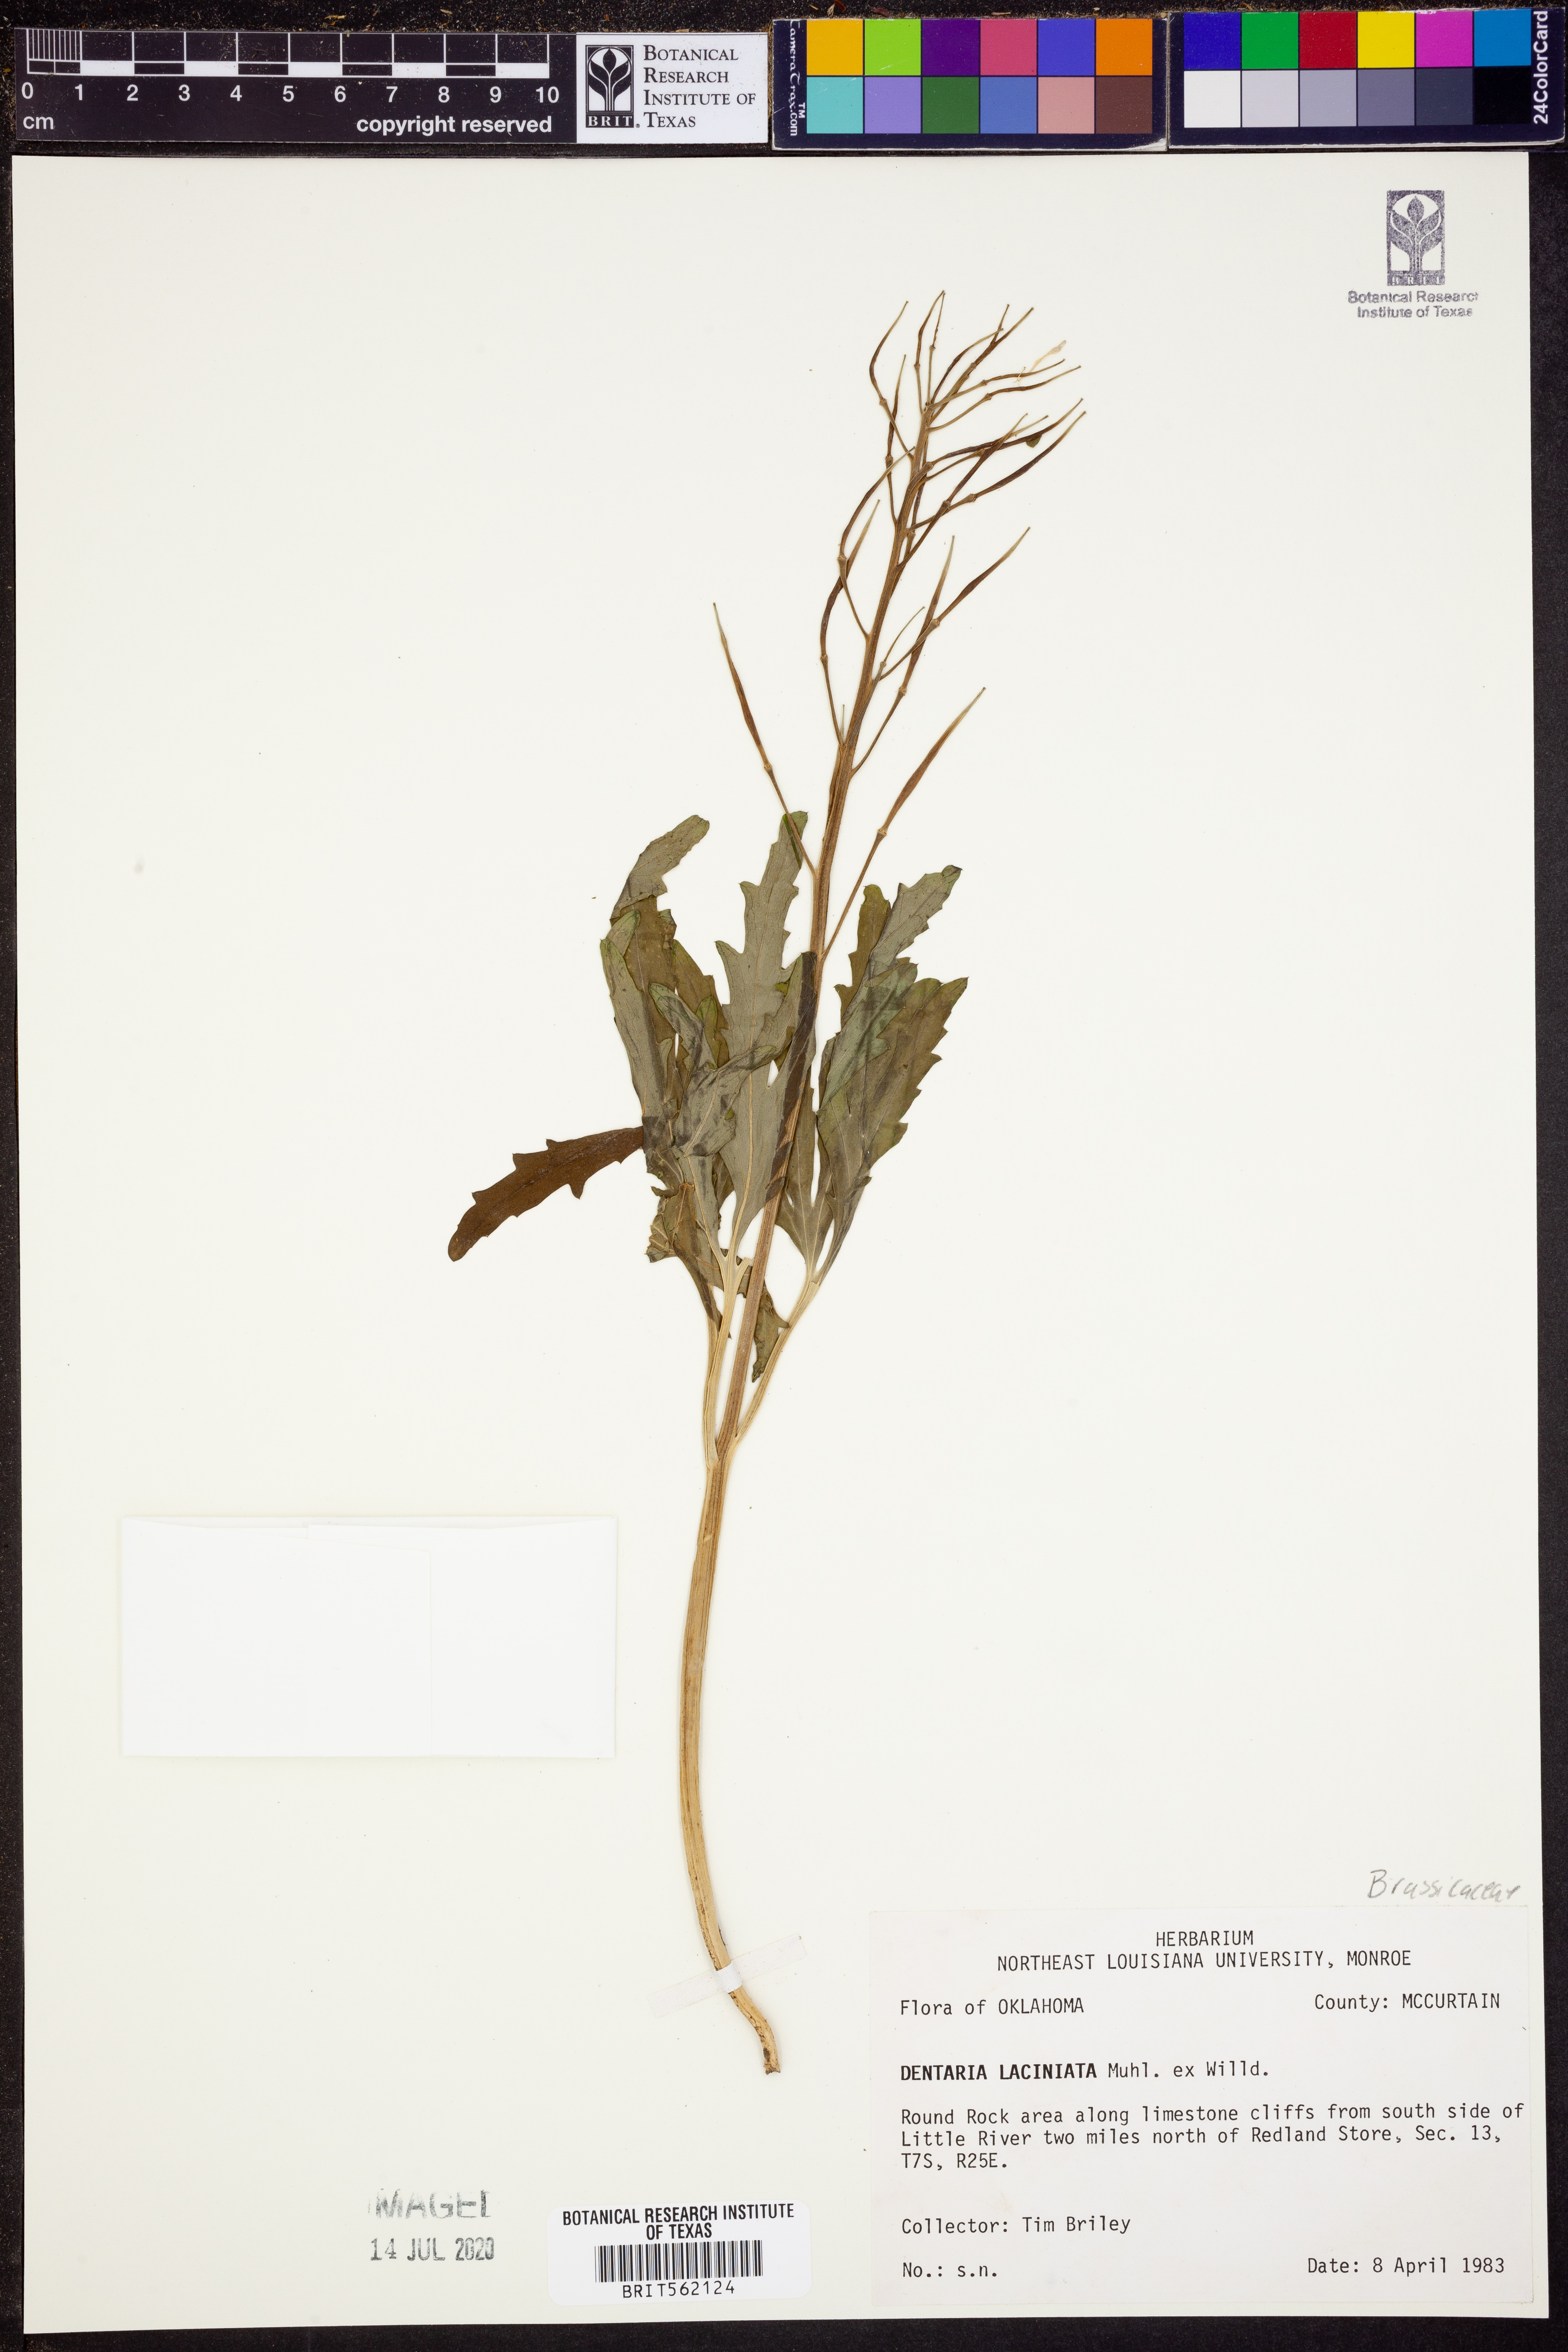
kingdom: Plantae
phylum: Tracheophyta
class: Magnoliopsida
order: Brassicales
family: Brassicaceae
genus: Cardamine
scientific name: Cardamine concatenata
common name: Cut-leaf toothcup
